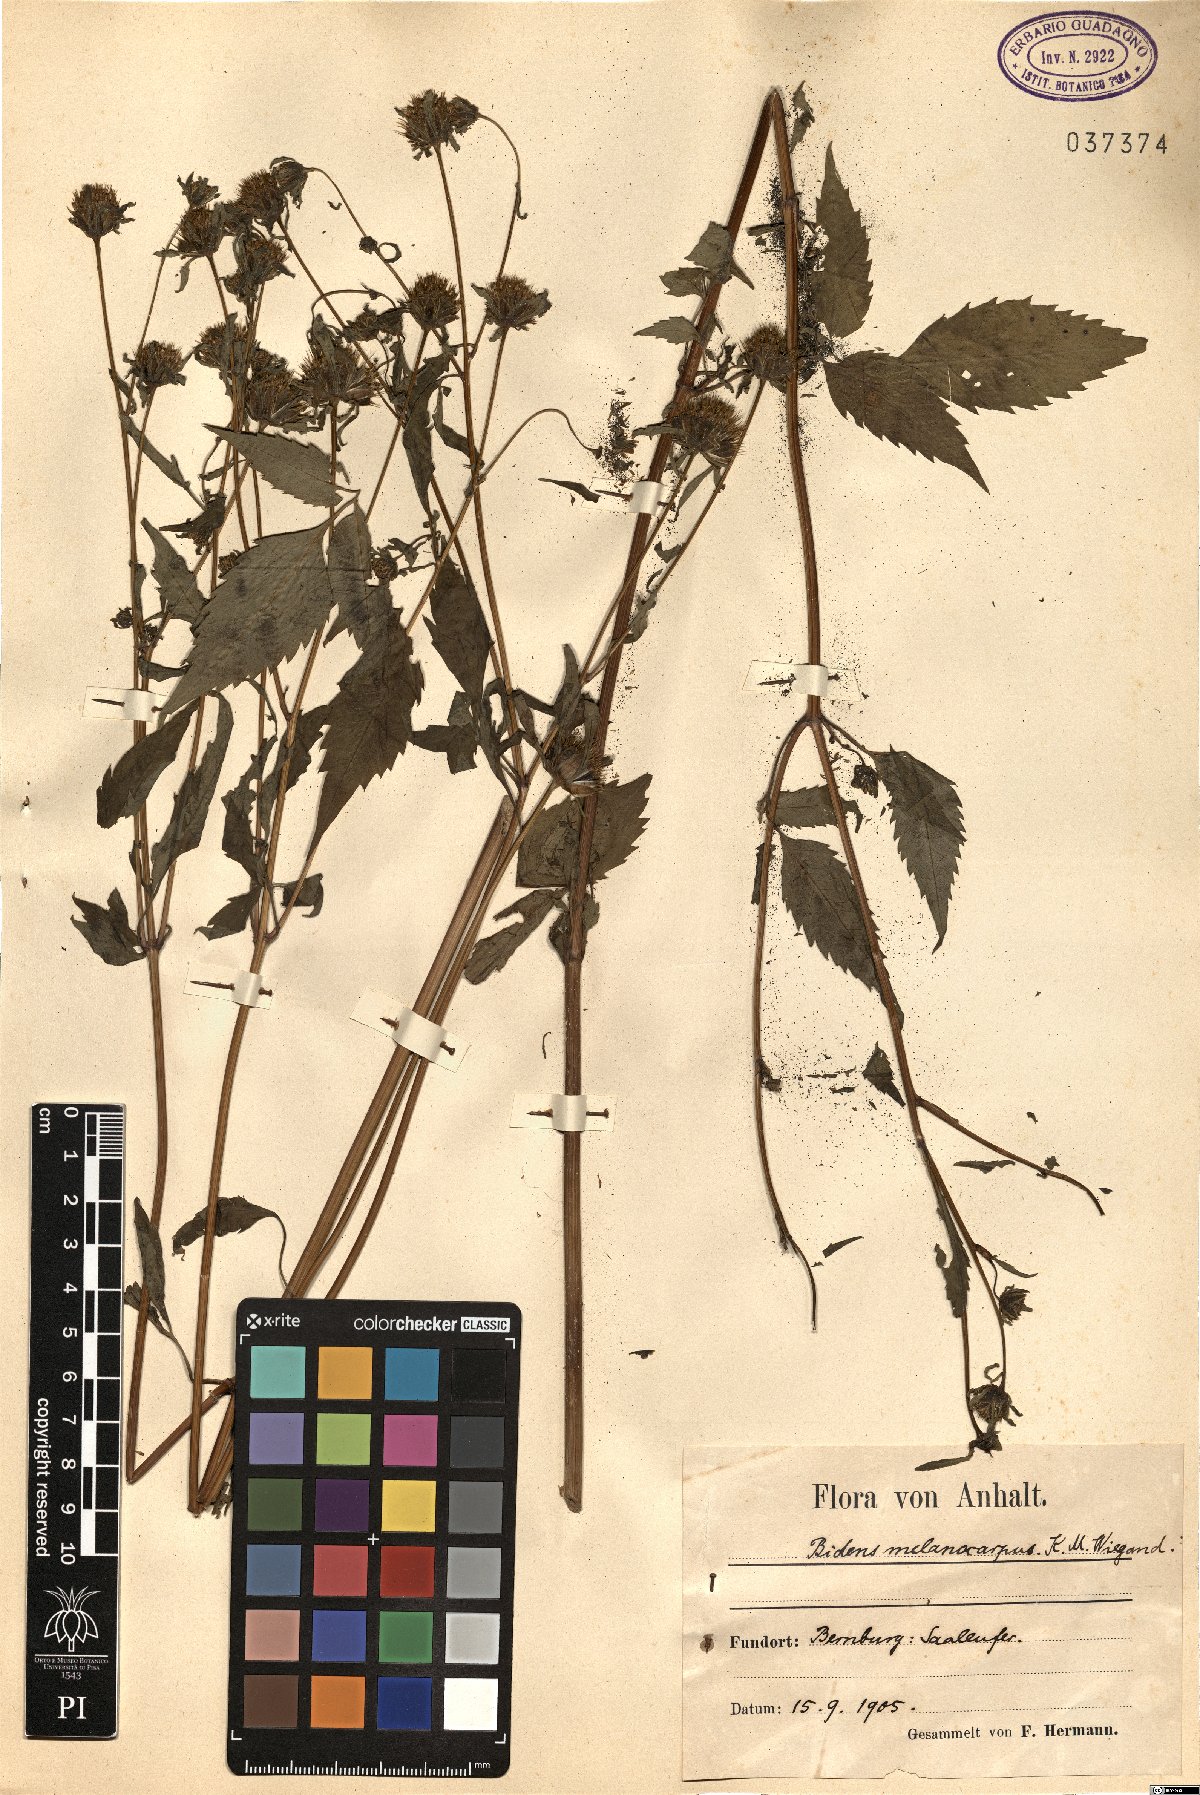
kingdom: Plantae
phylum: Tracheophyta
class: Magnoliopsida
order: Asterales
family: Asteraceae
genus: Bidens
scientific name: Bidens frondosa
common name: Beggarticks
